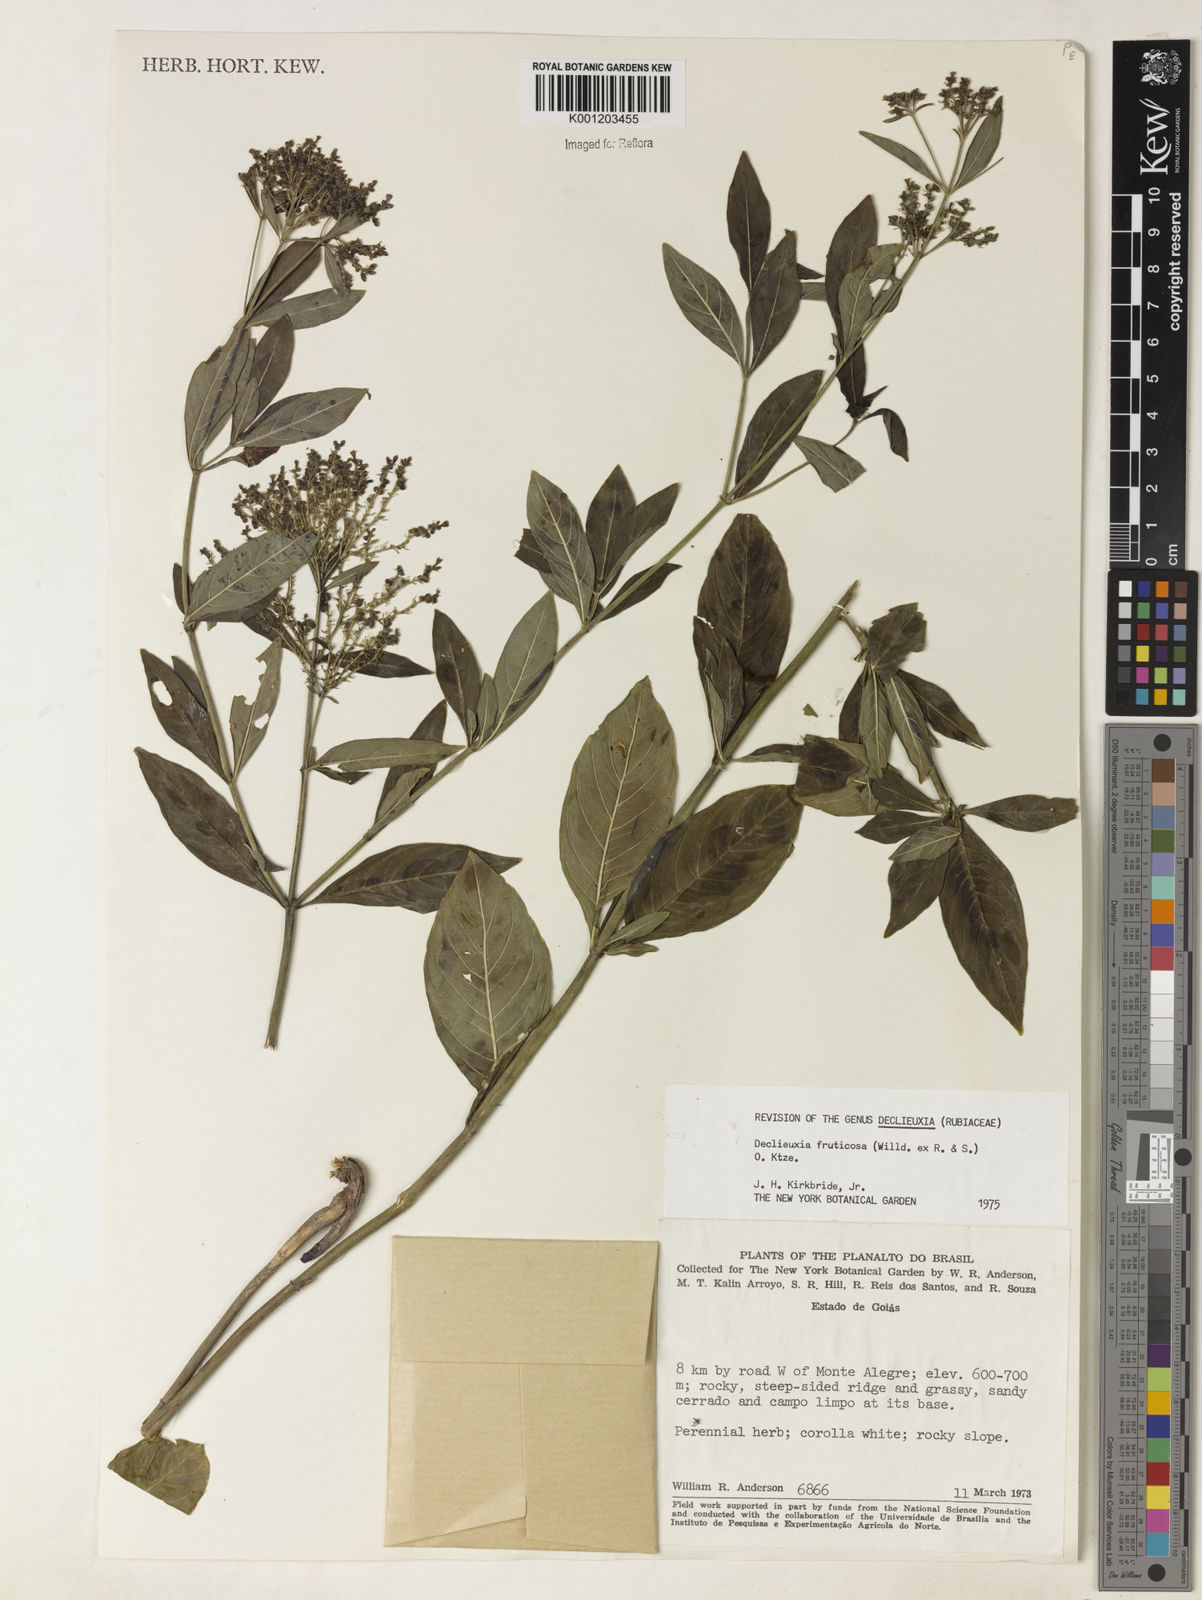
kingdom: Plantae
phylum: Tracheophyta
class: Magnoliopsida
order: Gentianales
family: Rubiaceae
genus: Declieuxia
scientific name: Declieuxia fruticosa
